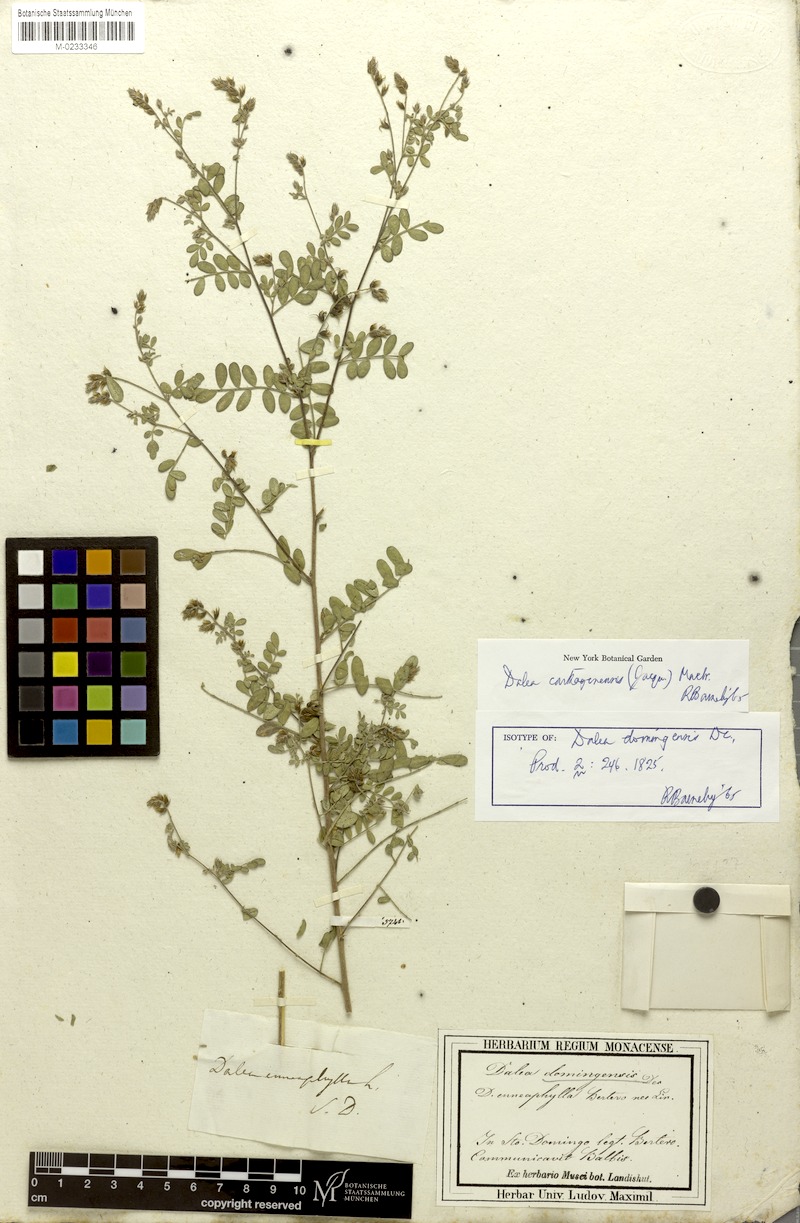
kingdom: Plantae
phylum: Tracheophyta
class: Magnoliopsida
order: Fabales
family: Fabaceae
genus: Dalea
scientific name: Dalea carthagenensis
